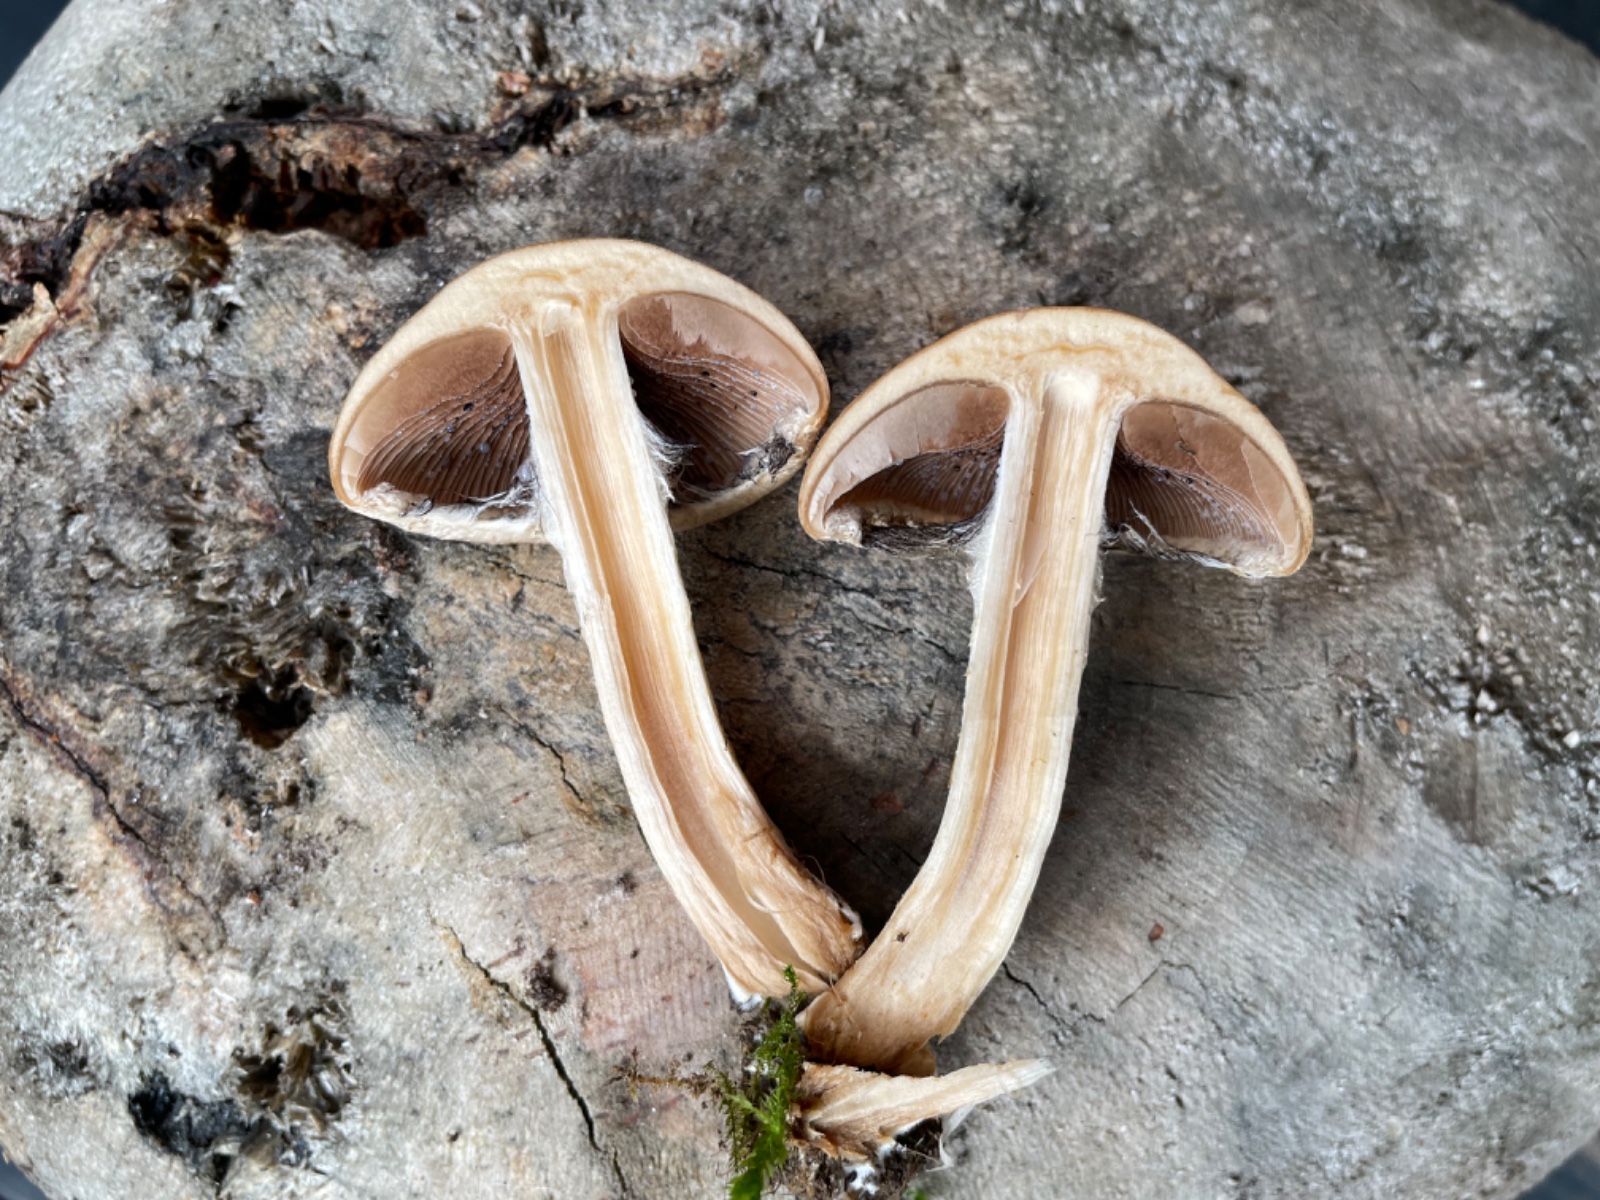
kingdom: Fungi
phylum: Basidiomycota
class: Agaricomycetes
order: Agaricales
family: Psathyrellaceae
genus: Lacrymaria
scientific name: Lacrymaria lacrymabunda
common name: grædende mørkhat
